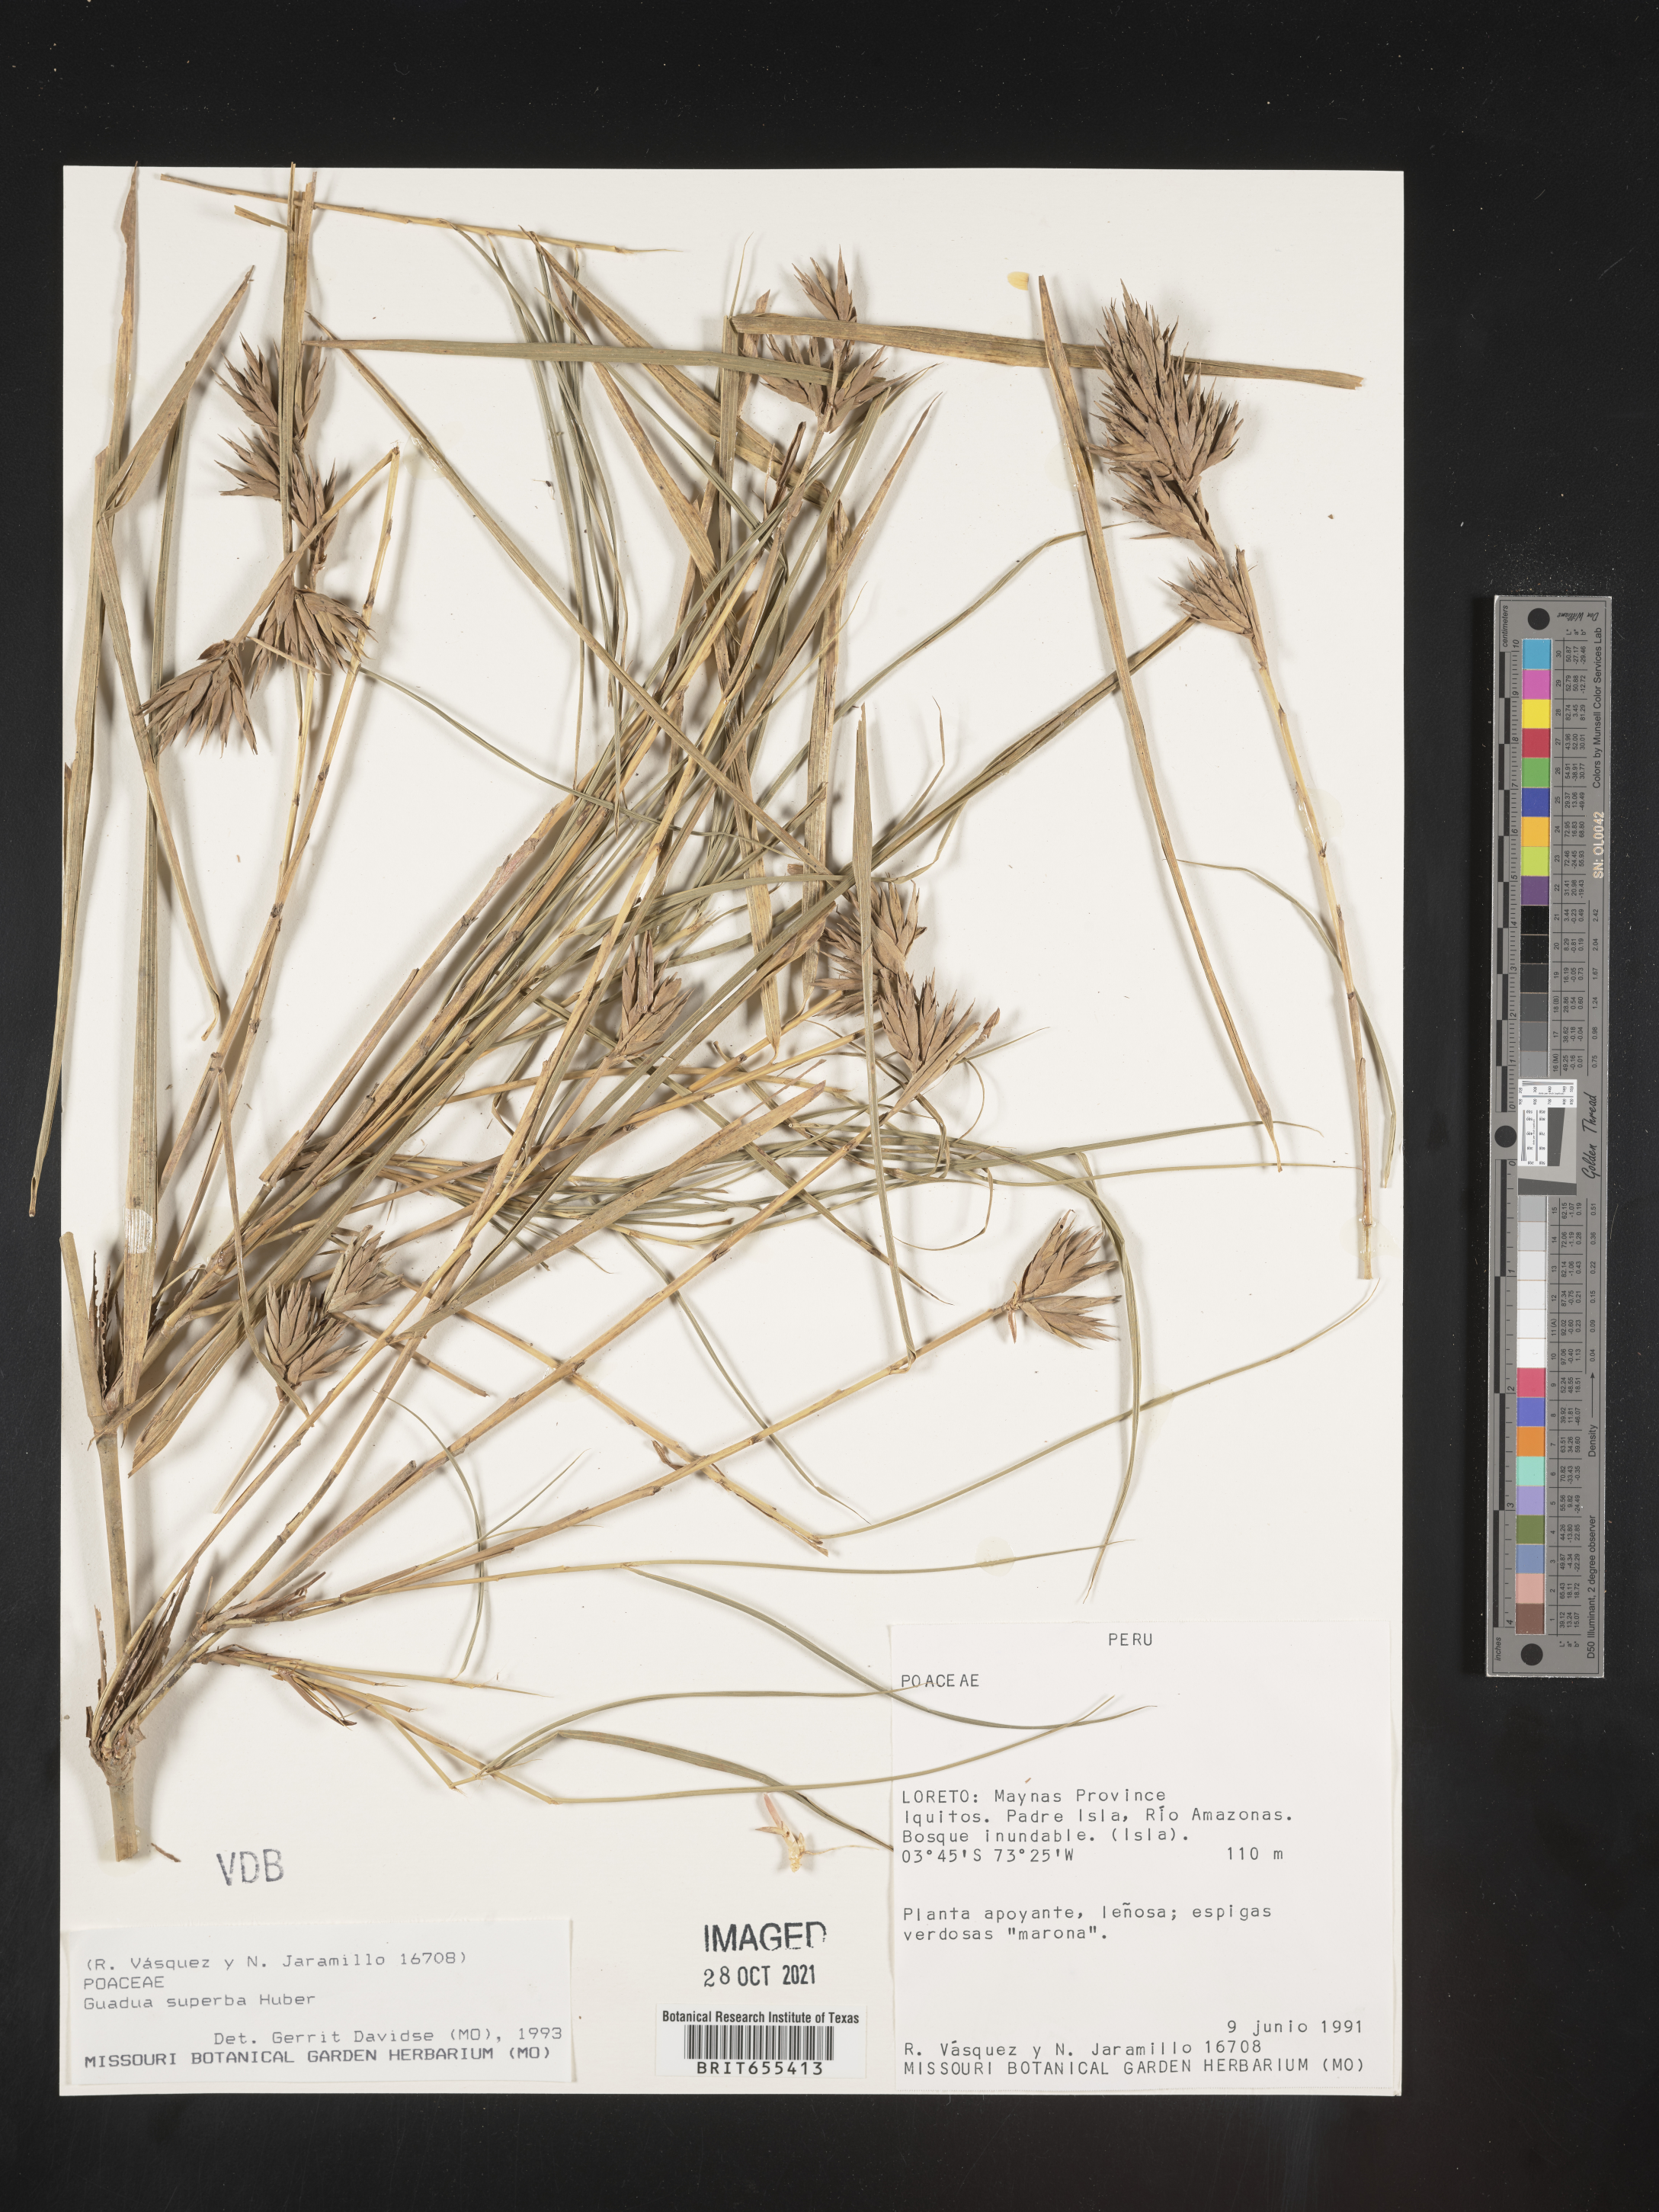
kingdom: Plantae
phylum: Tracheophyta
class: Liliopsida
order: Poales
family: Poaceae
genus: Guadua
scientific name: Guadua
